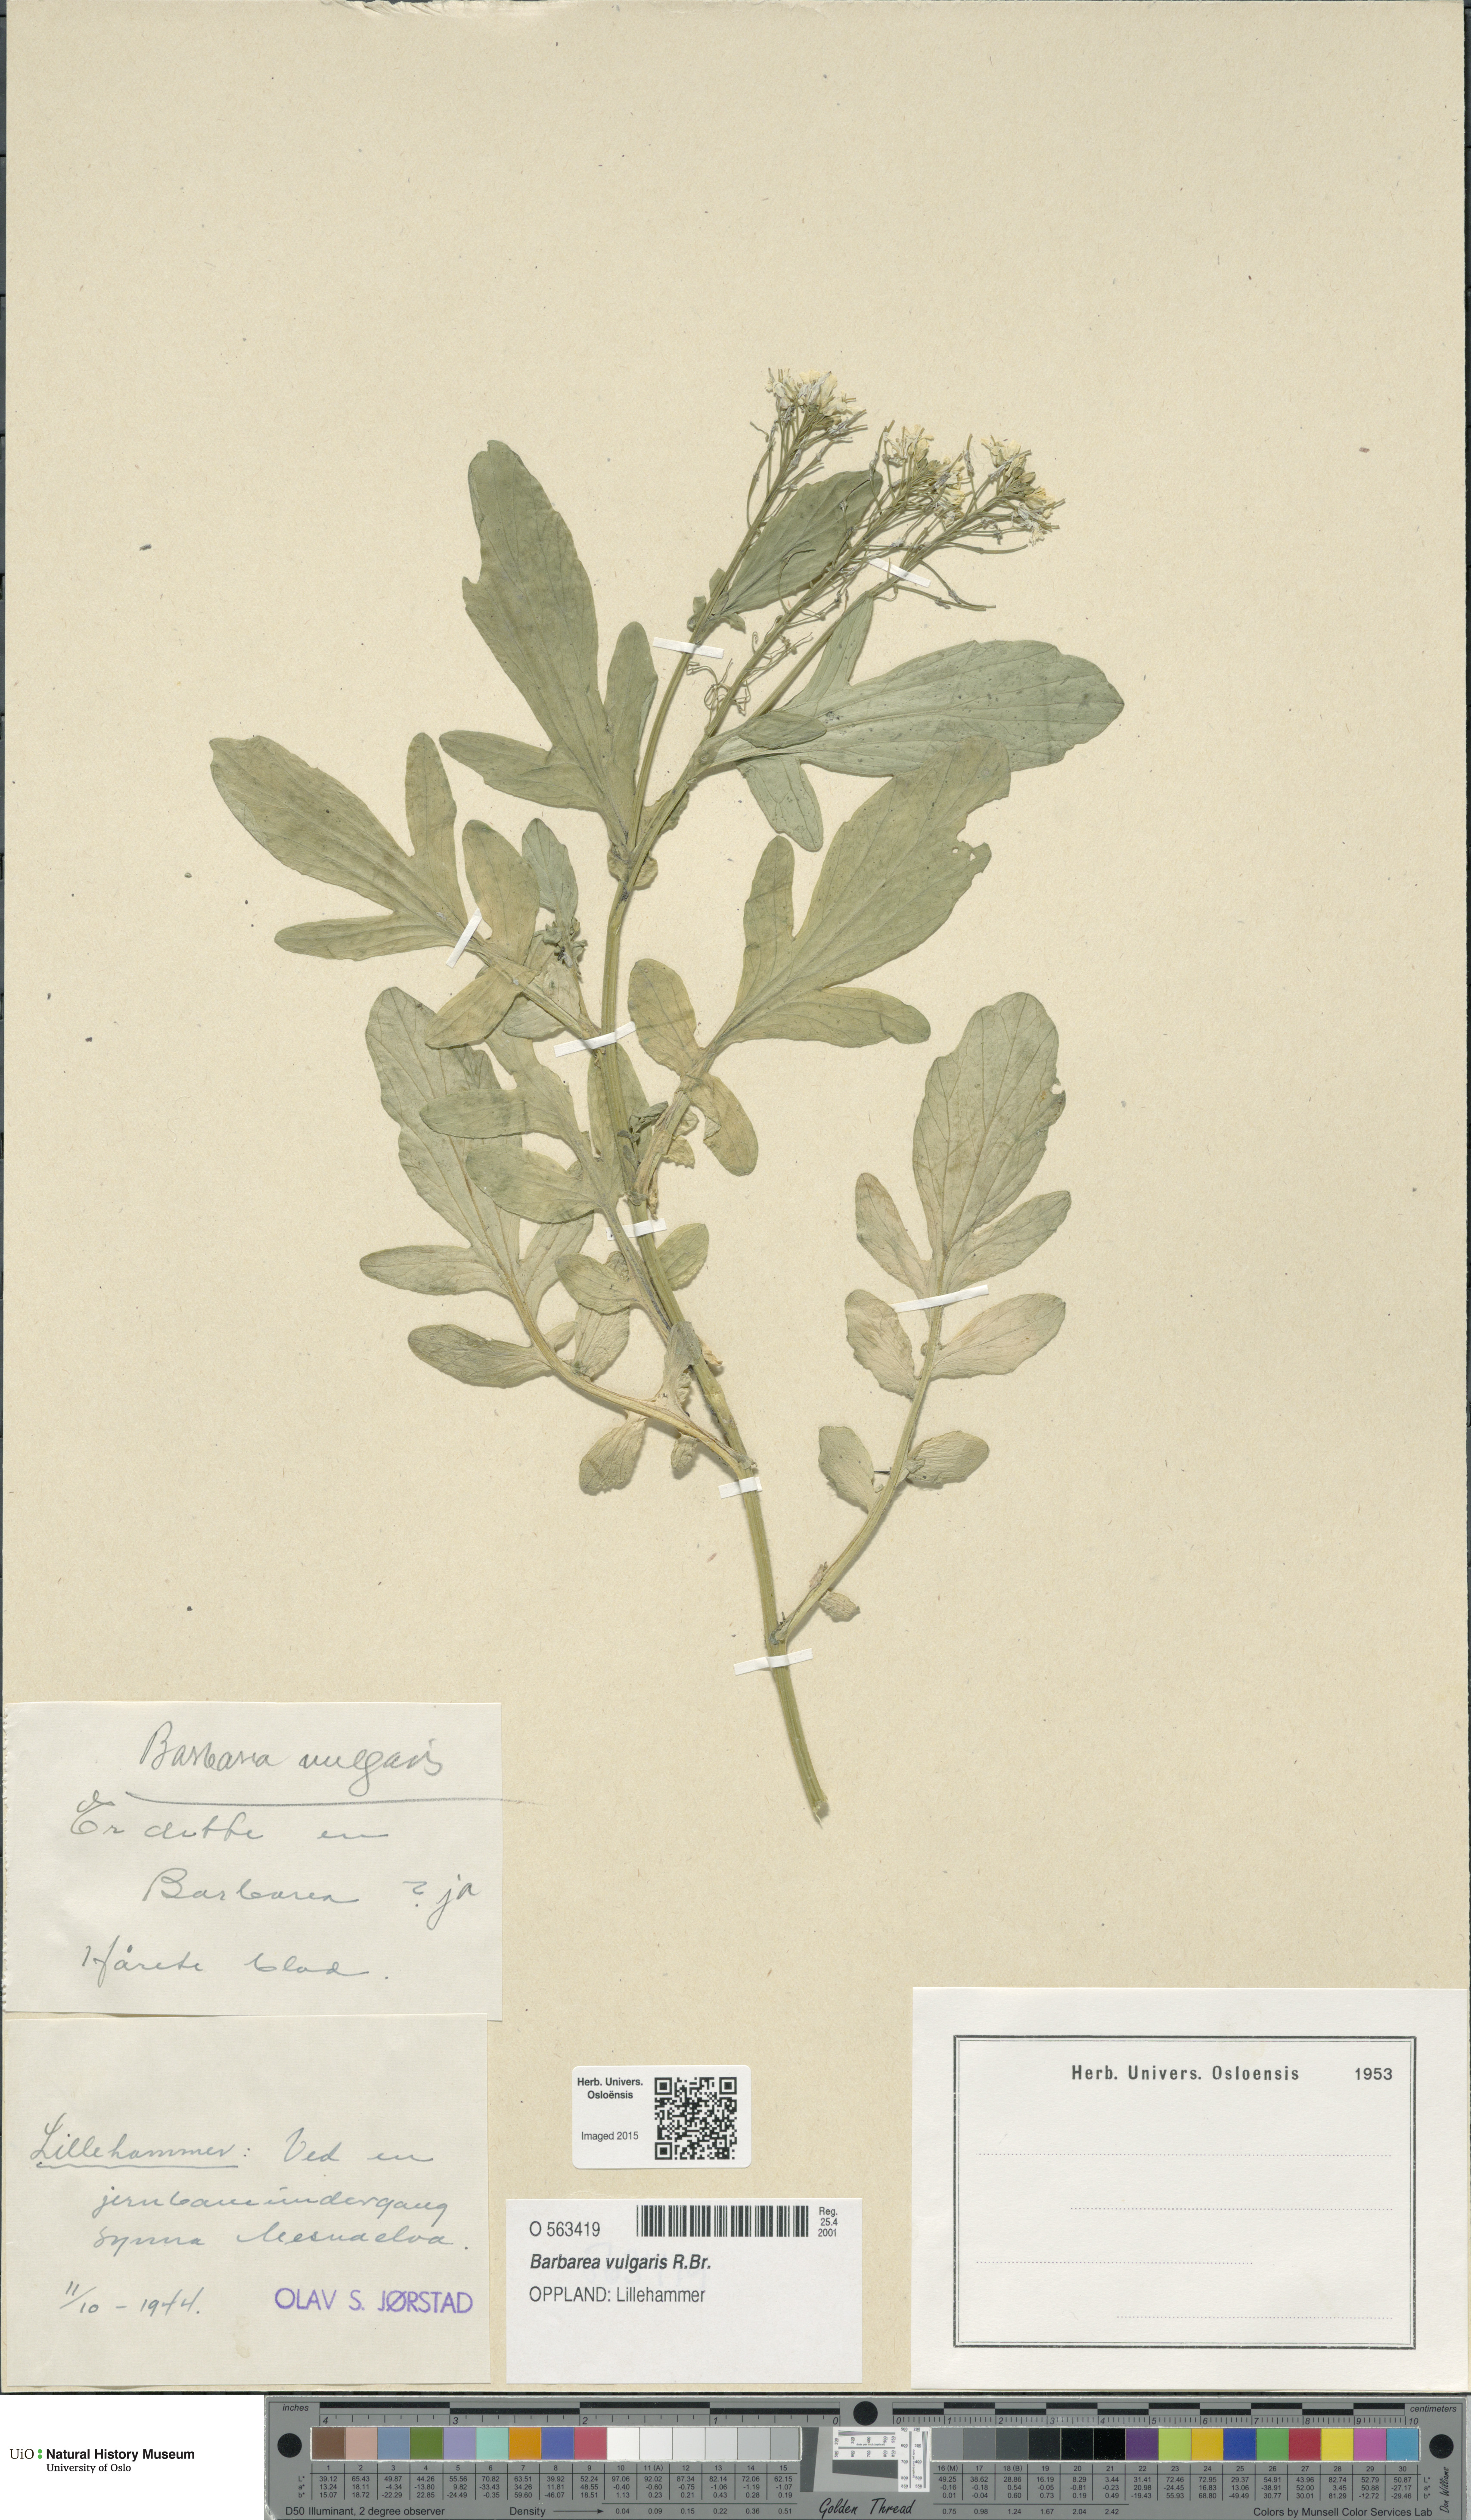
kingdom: Plantae
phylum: Tracheophyta
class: Magnoliopsida
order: Brassicales
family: Brassicaceae
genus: Barbarea
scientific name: Barbarea vulgaris
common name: Cressy-greens
